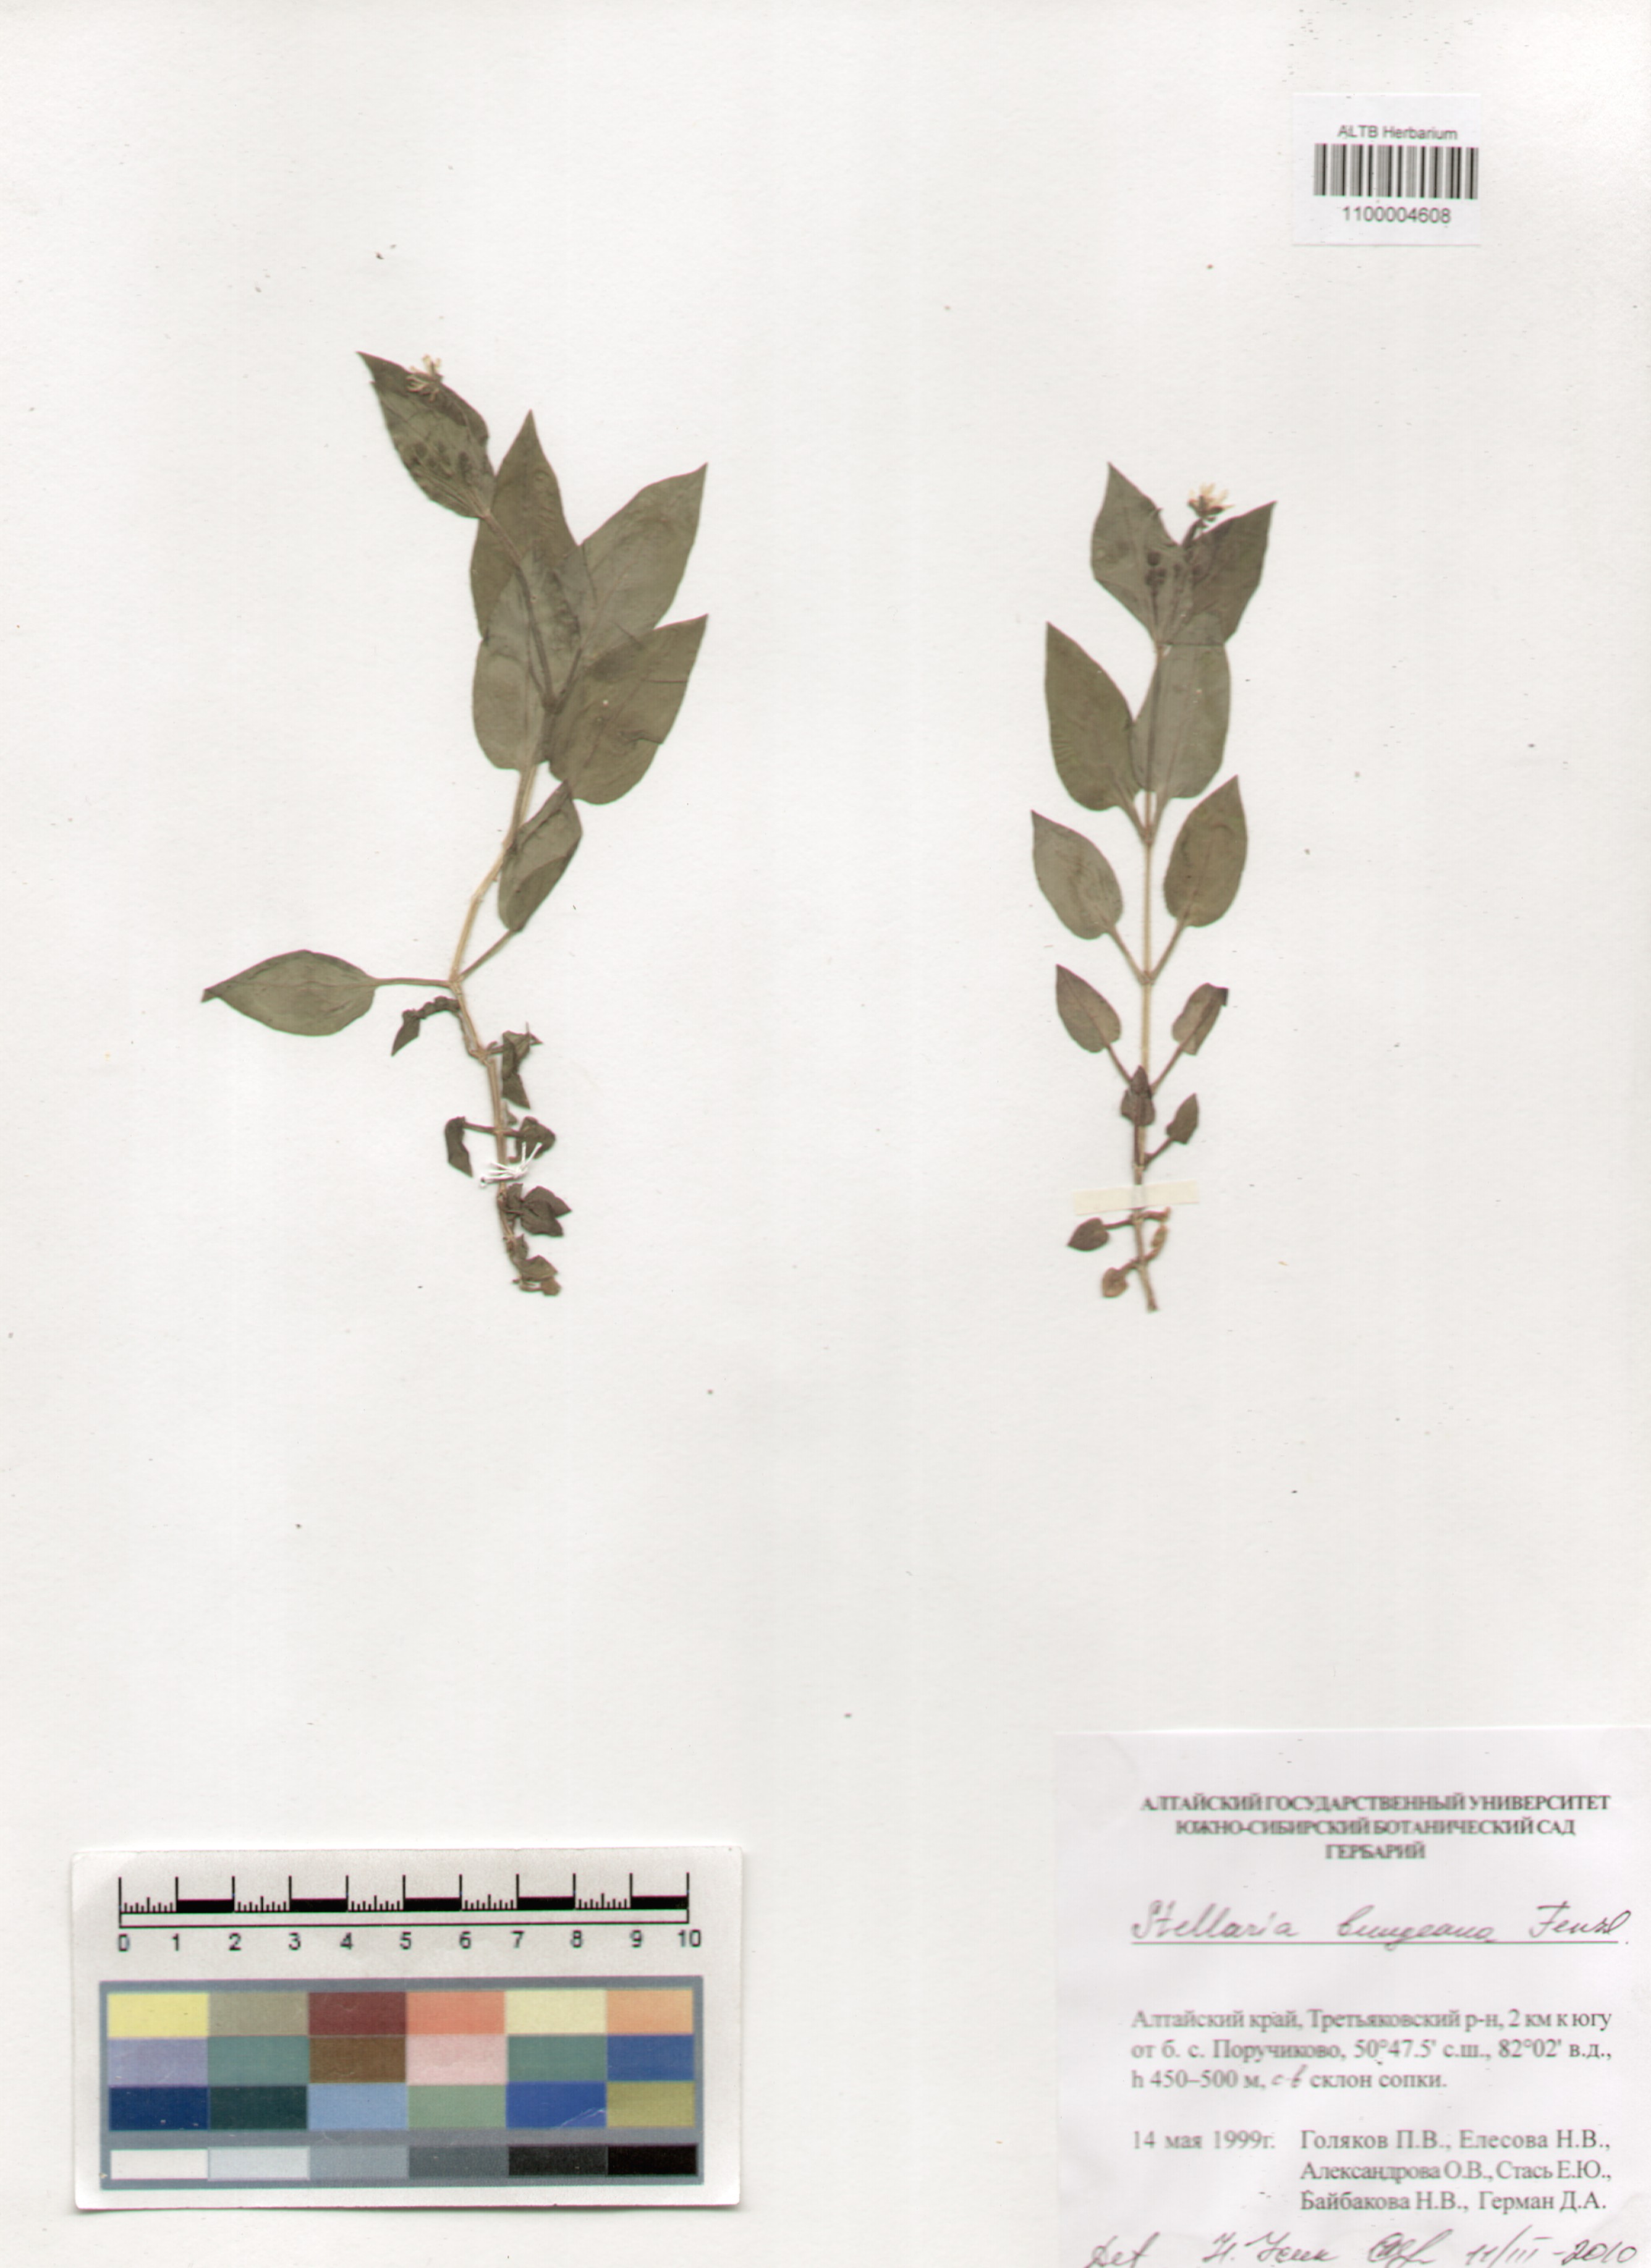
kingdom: Plantae
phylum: Tracheophyta
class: Magnoliopsida
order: Caryophyllales
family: Caryophyllaceae
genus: Stellaria
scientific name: Stellaria bungeana
